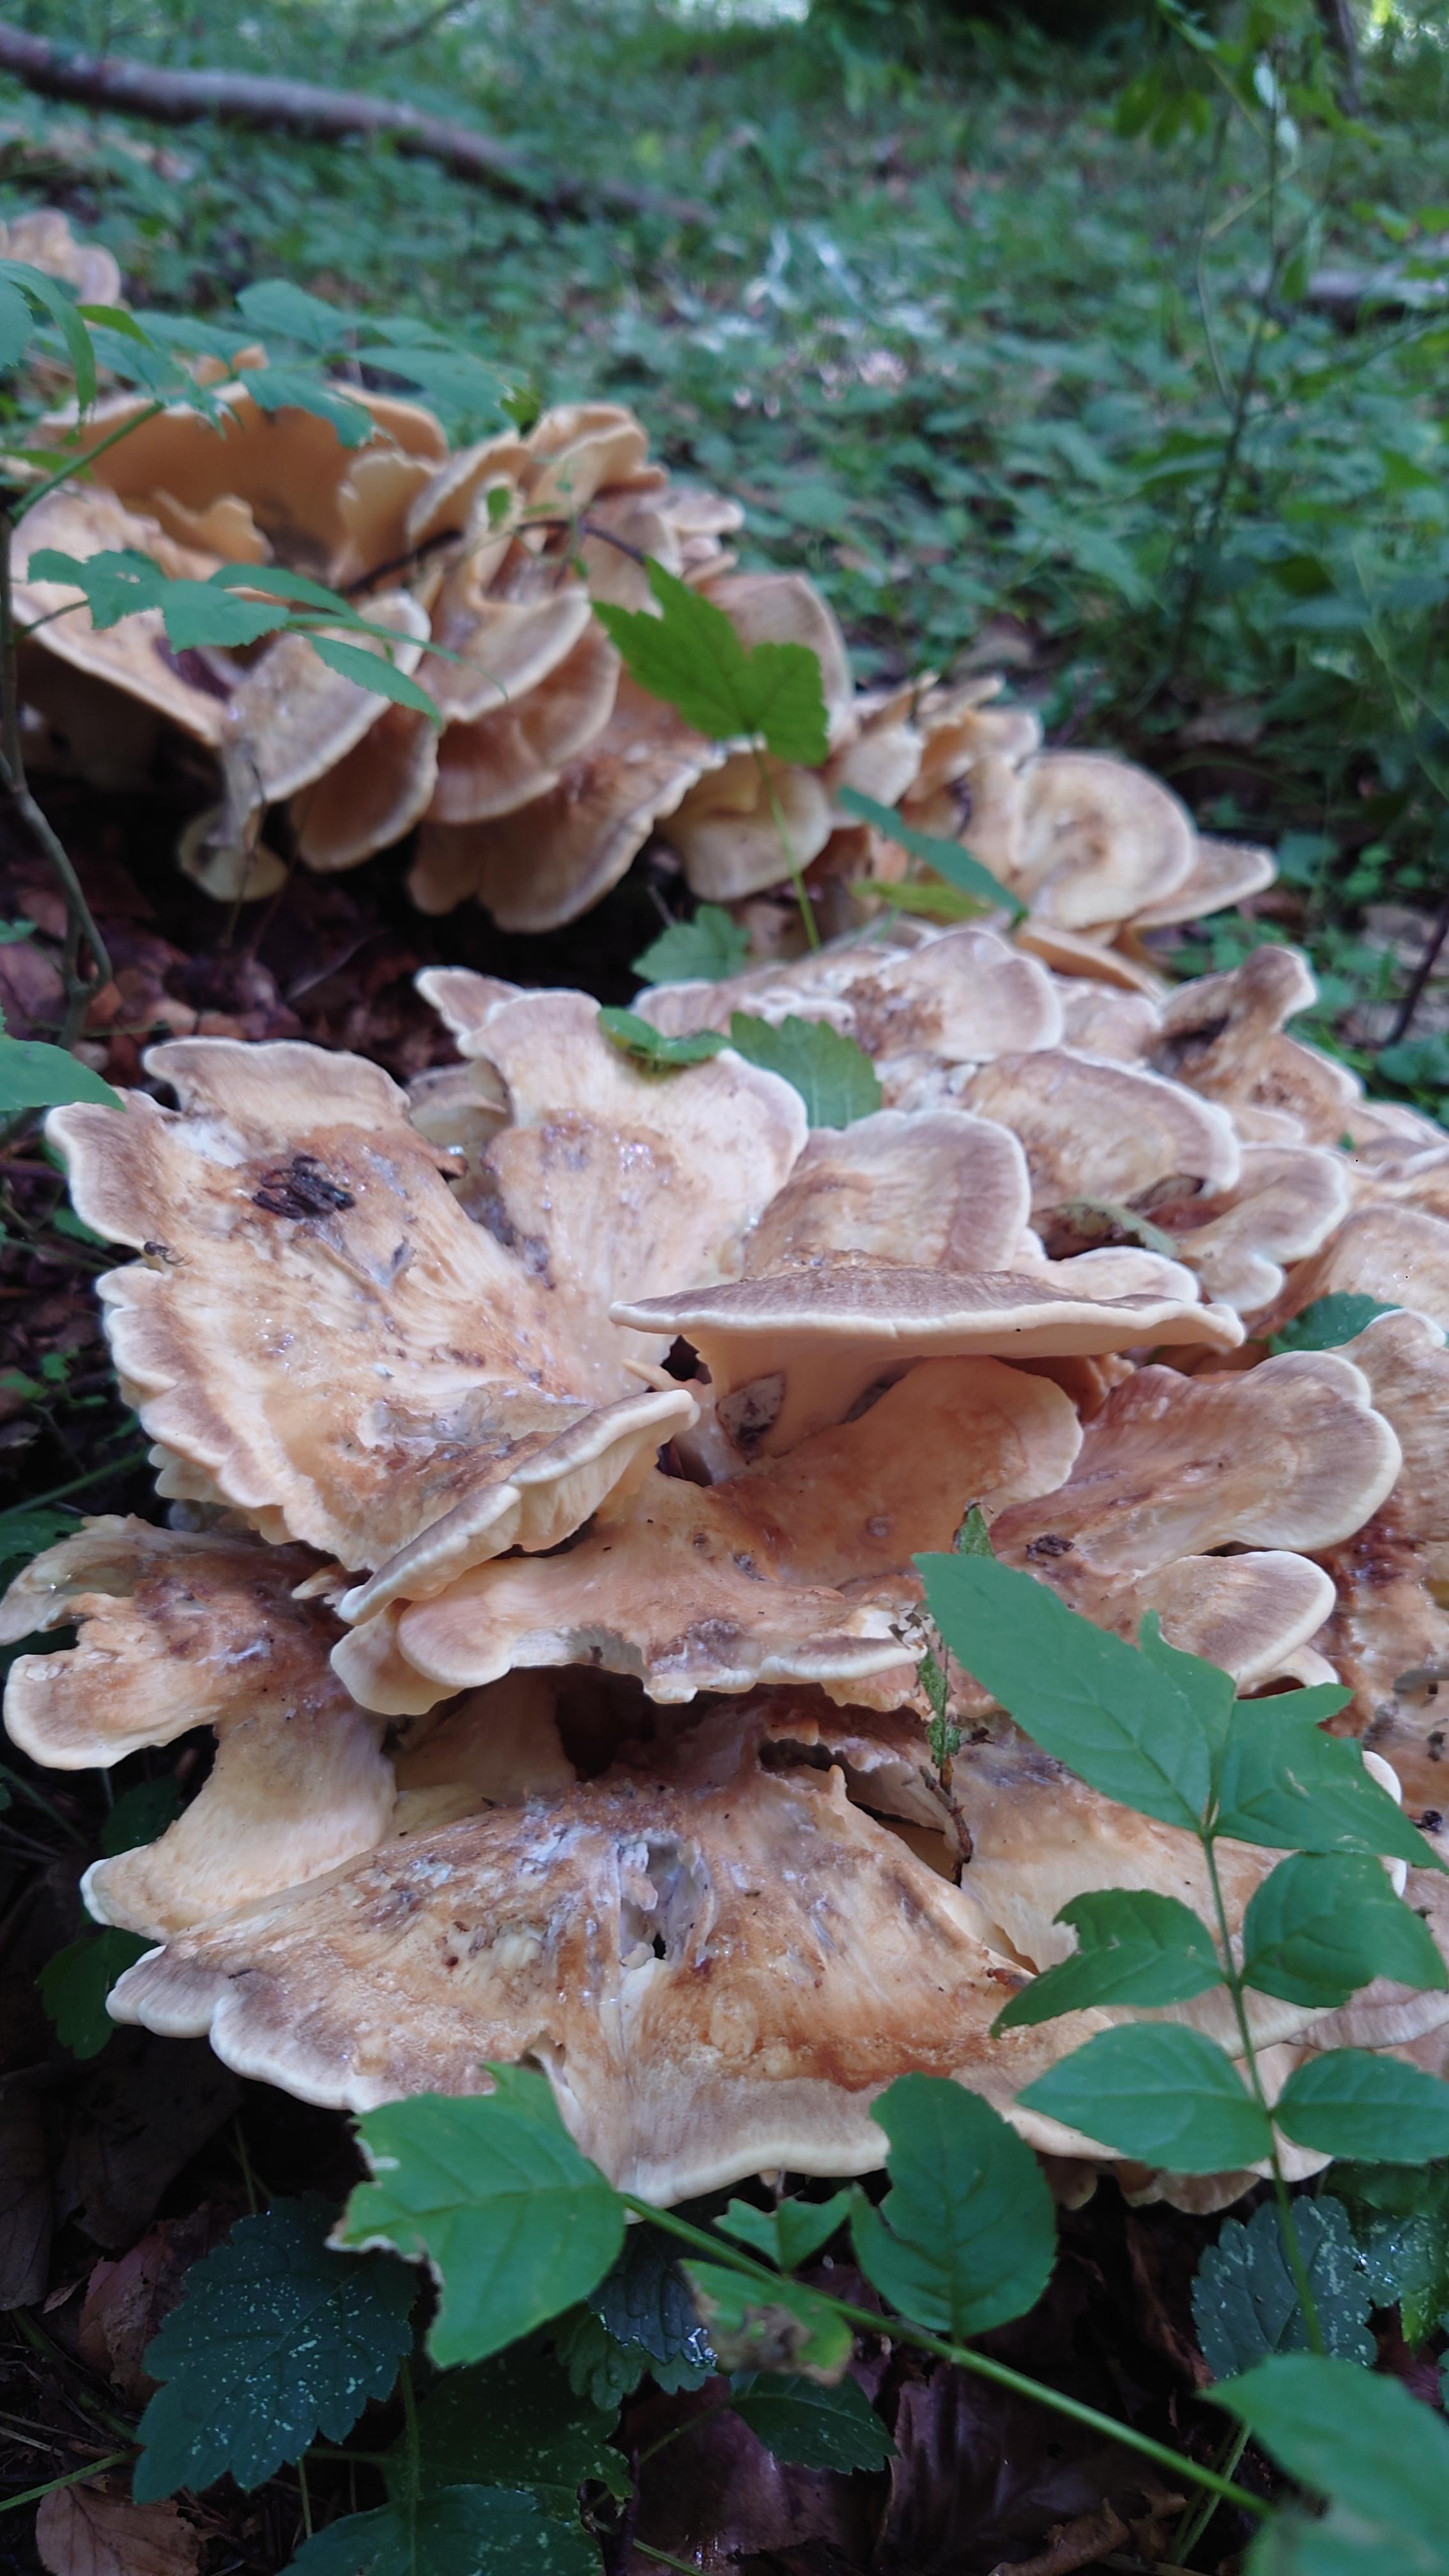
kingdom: Fungi
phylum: Basidiomycota
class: Agaricomycetes
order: Polyporales
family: Meripilaceae
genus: Meripilus
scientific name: Meripilus giganteus
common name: kæmpeporesvamp
